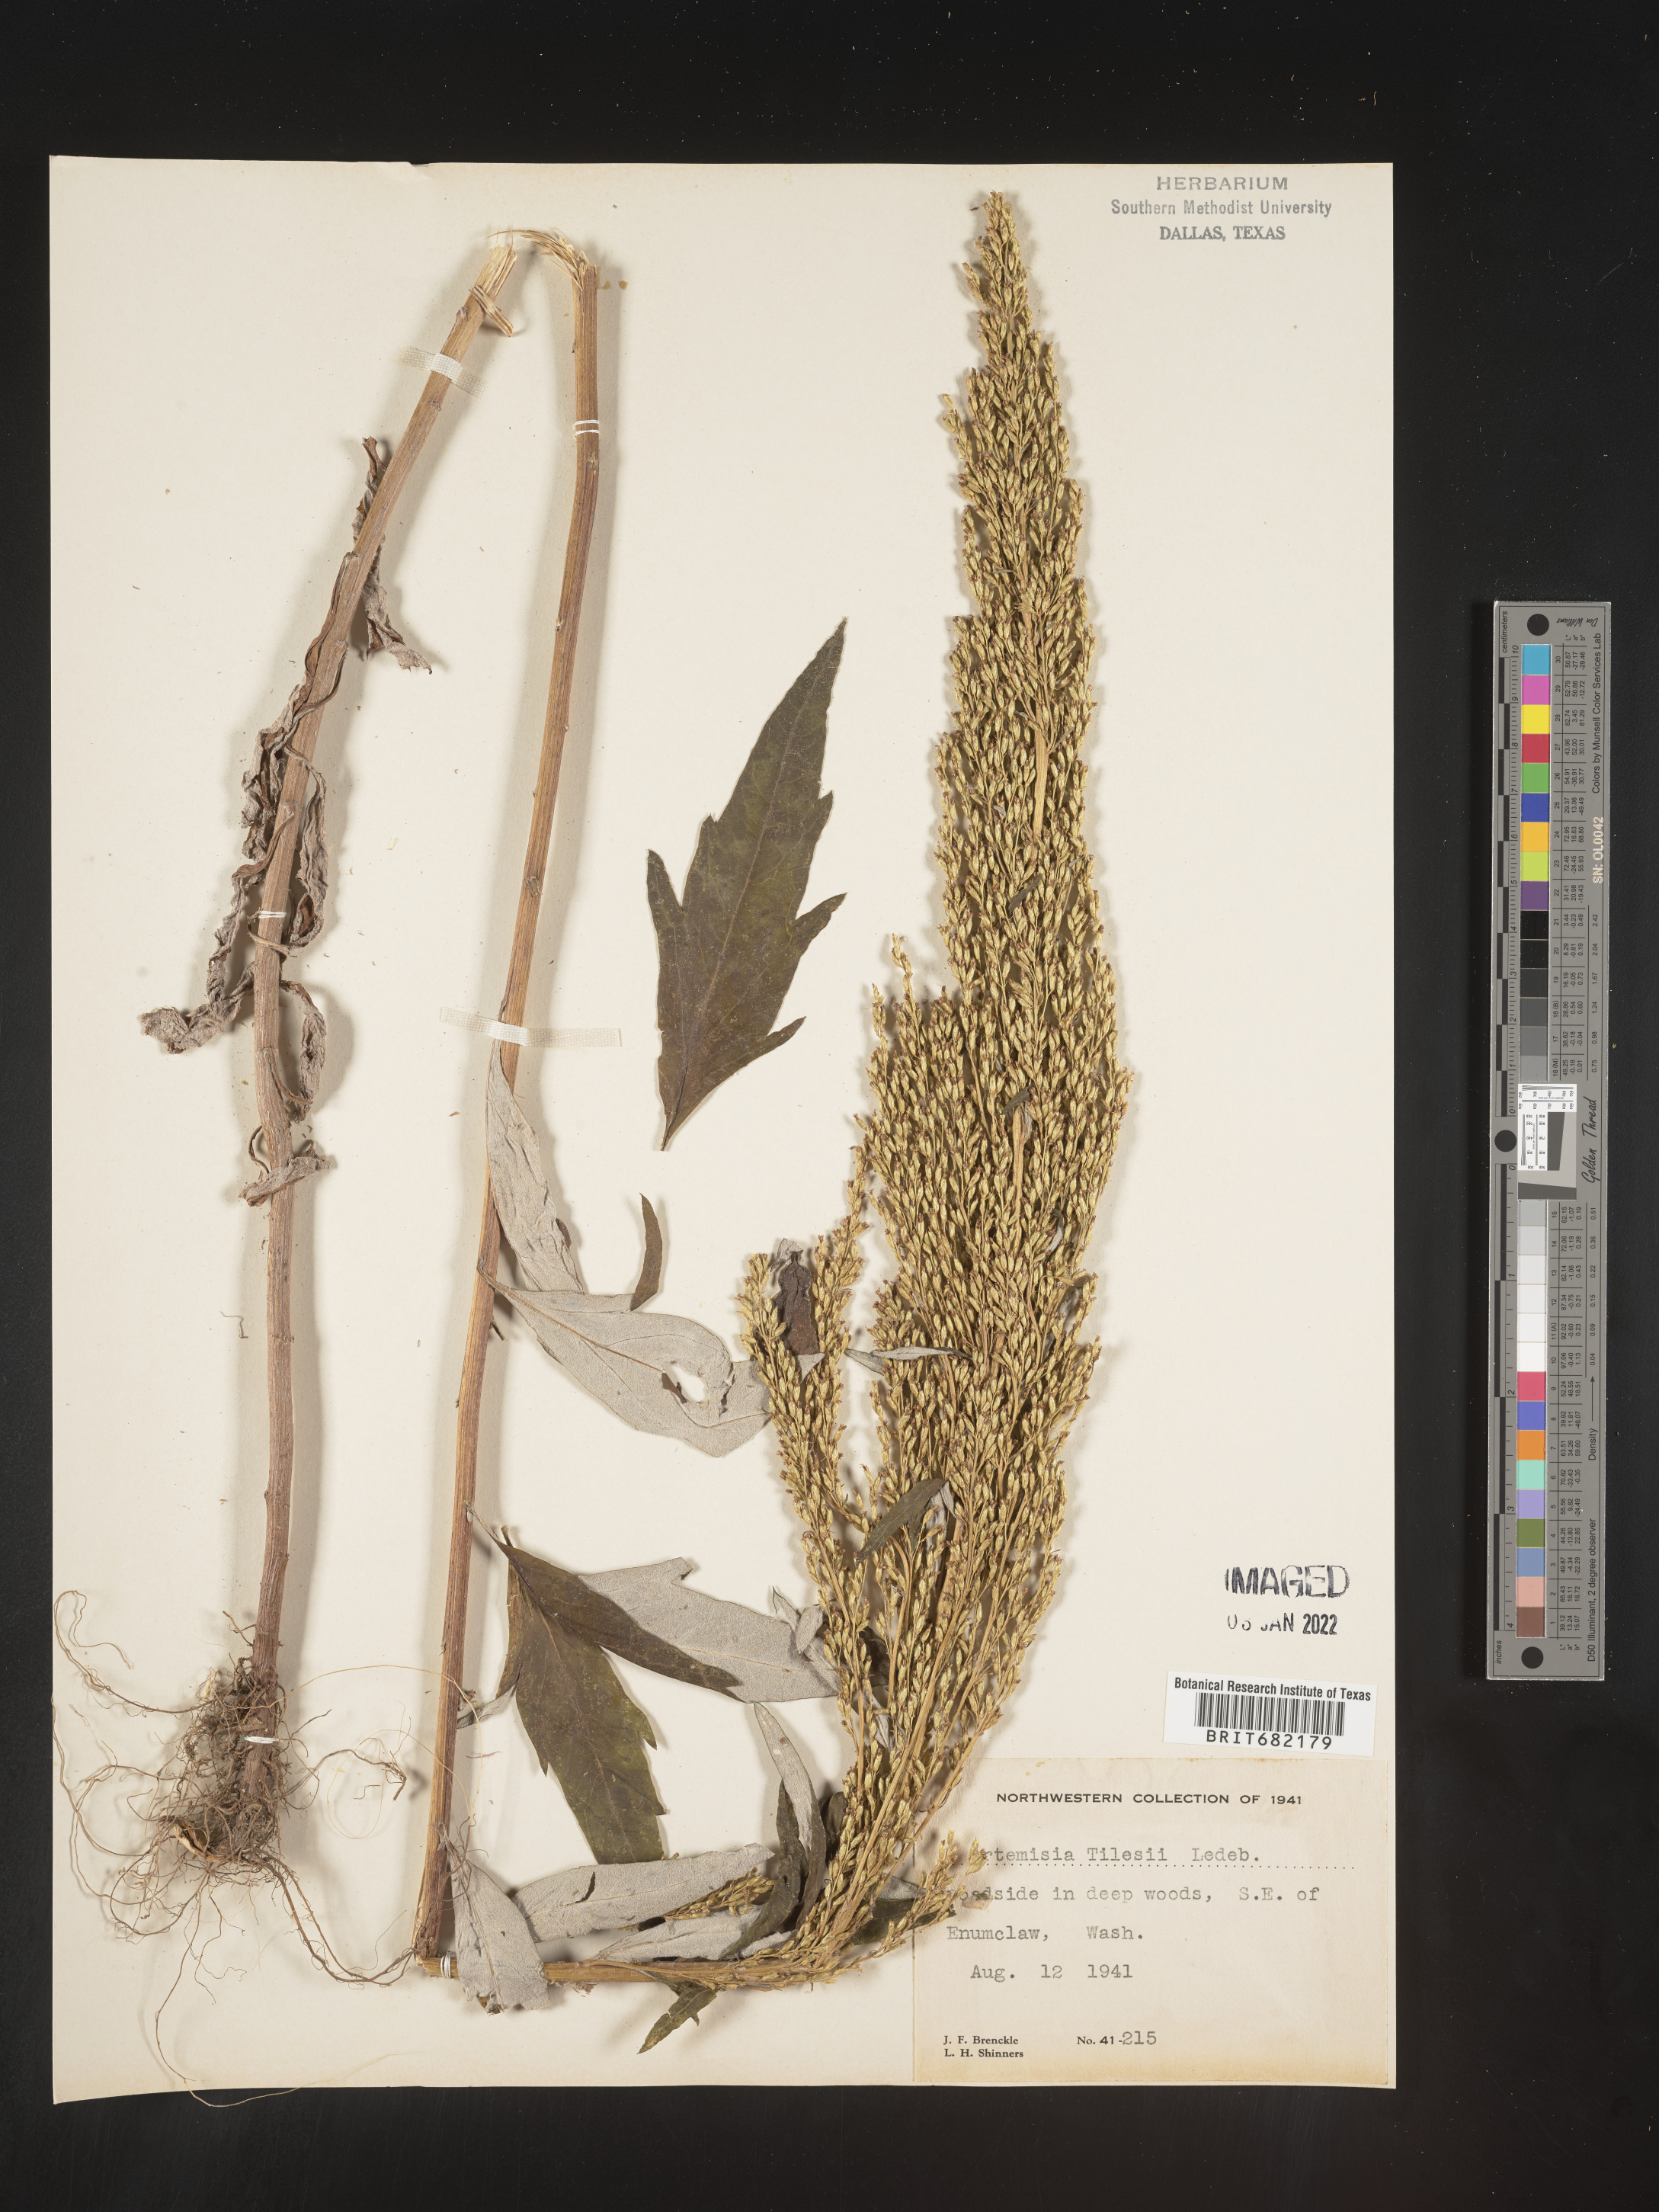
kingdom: Plantae
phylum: Tracheophyta
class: Magnoliopsida
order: Asterales
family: Asteraceae
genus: Artemisia
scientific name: Artemisia tilesii
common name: Aleutian mugwort
